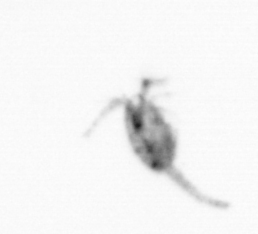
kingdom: Animalia
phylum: Arthropoda
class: Copepoda
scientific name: Copepoda
